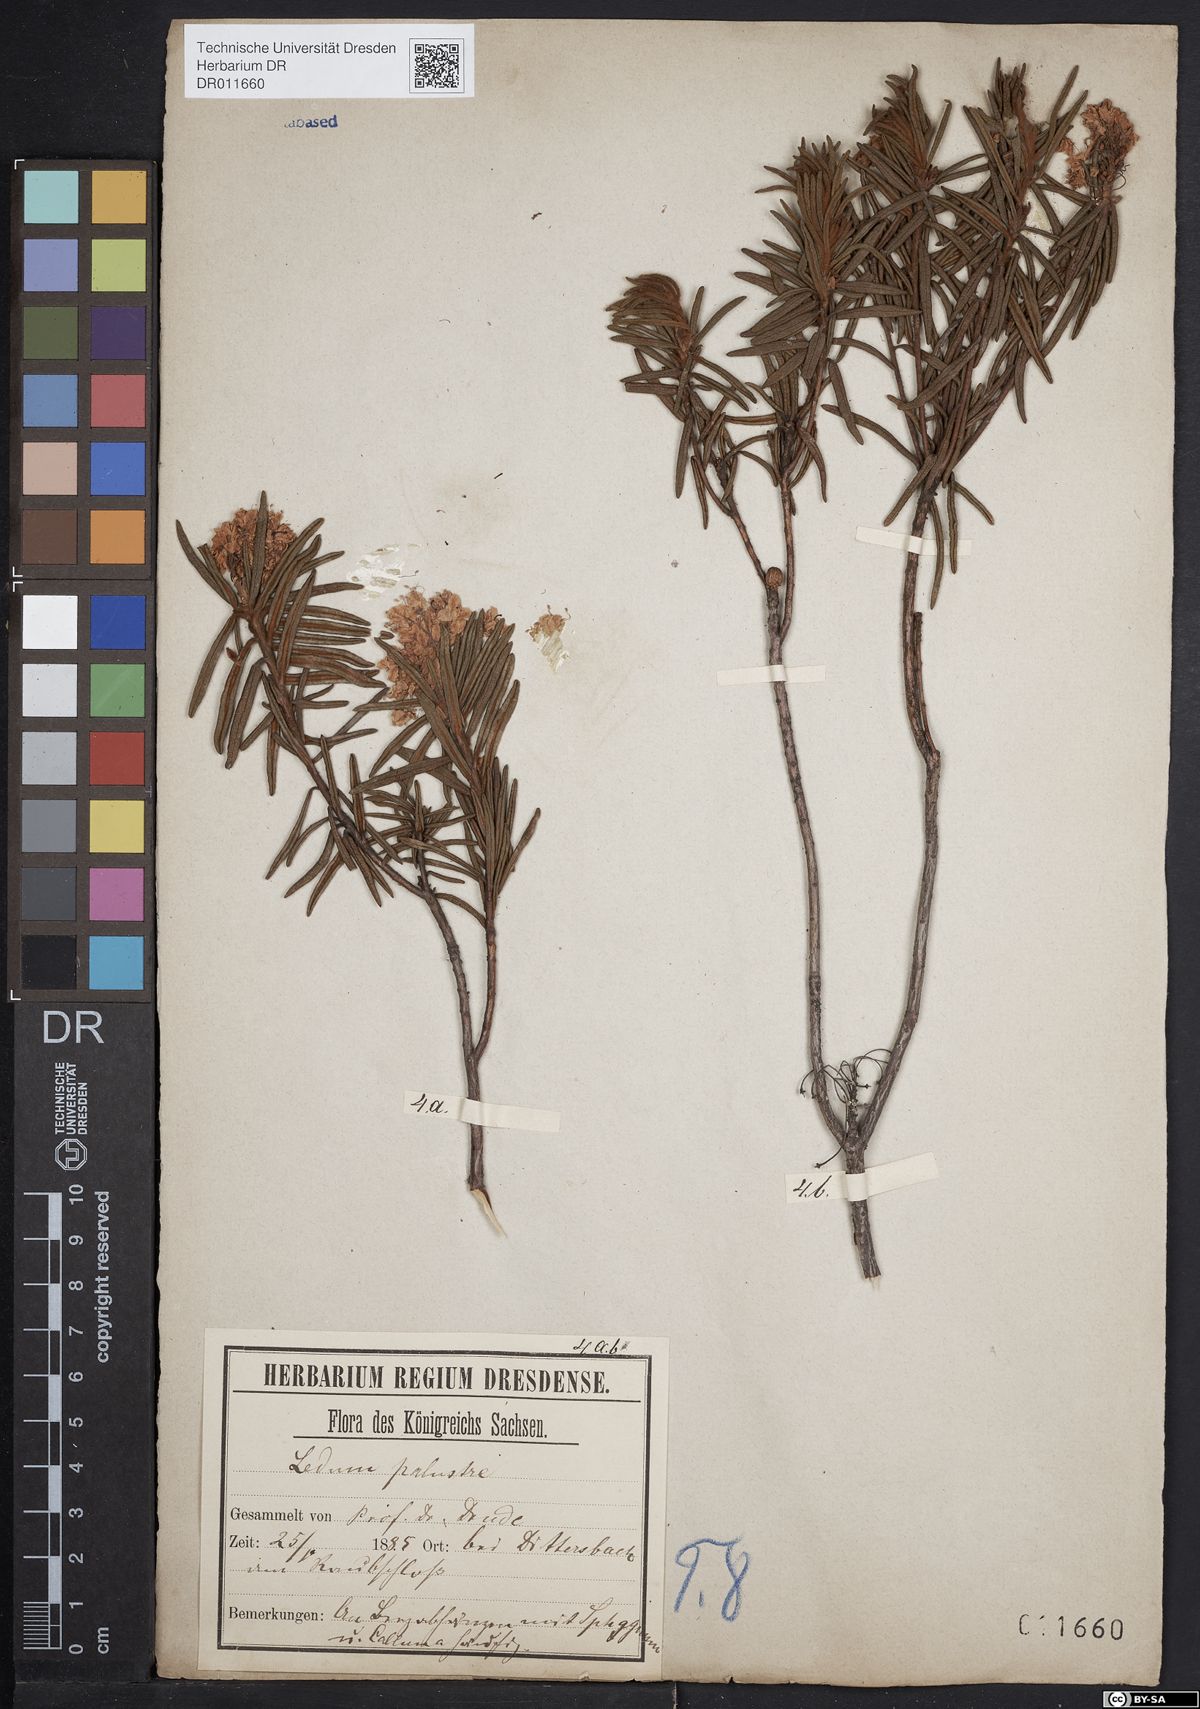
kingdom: Plantae
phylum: Tracheophyta
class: Magnoliopsida
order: Ericales
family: Ericaceae
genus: Rhododendron
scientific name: Rhododendron tomentosum
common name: Marsh labrador tea
